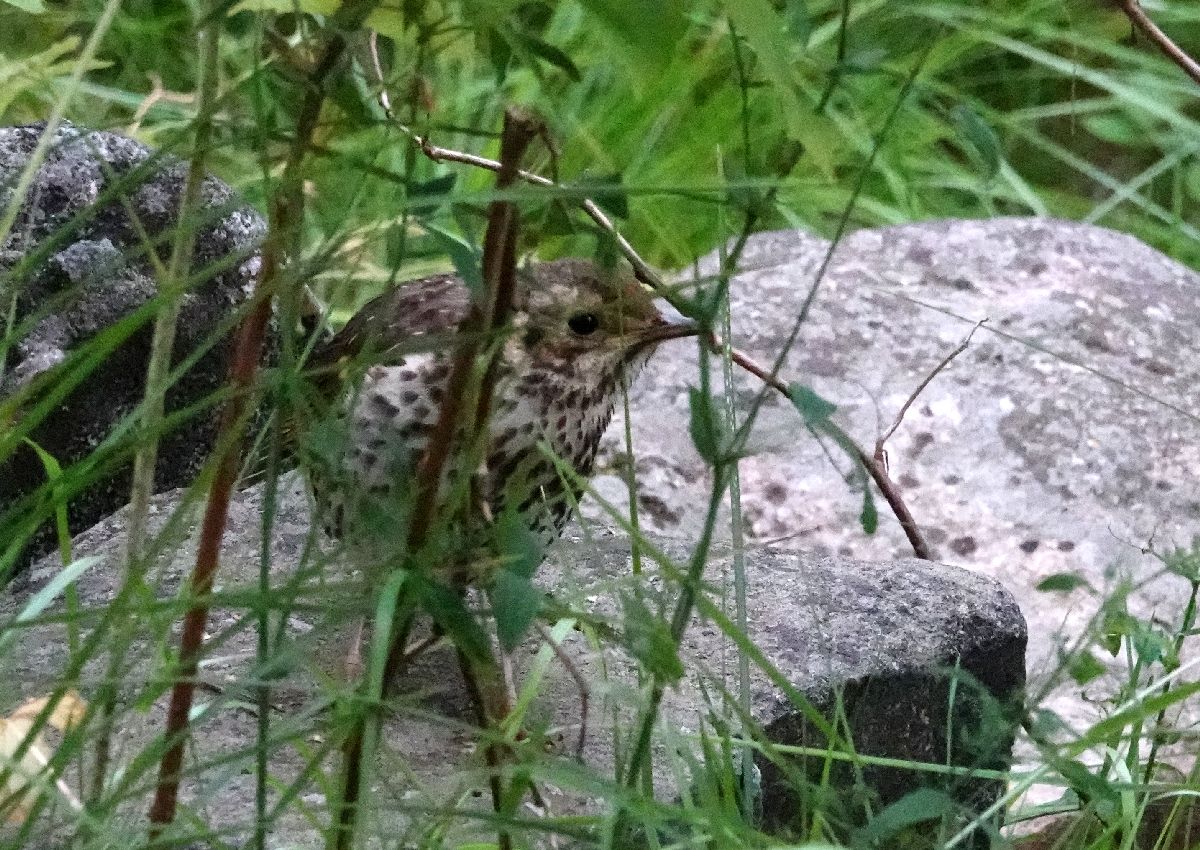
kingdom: Animalia
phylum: Chordata
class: Aves
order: Passeriformes
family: Turdidae
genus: Turdus
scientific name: Turdus philomelos
